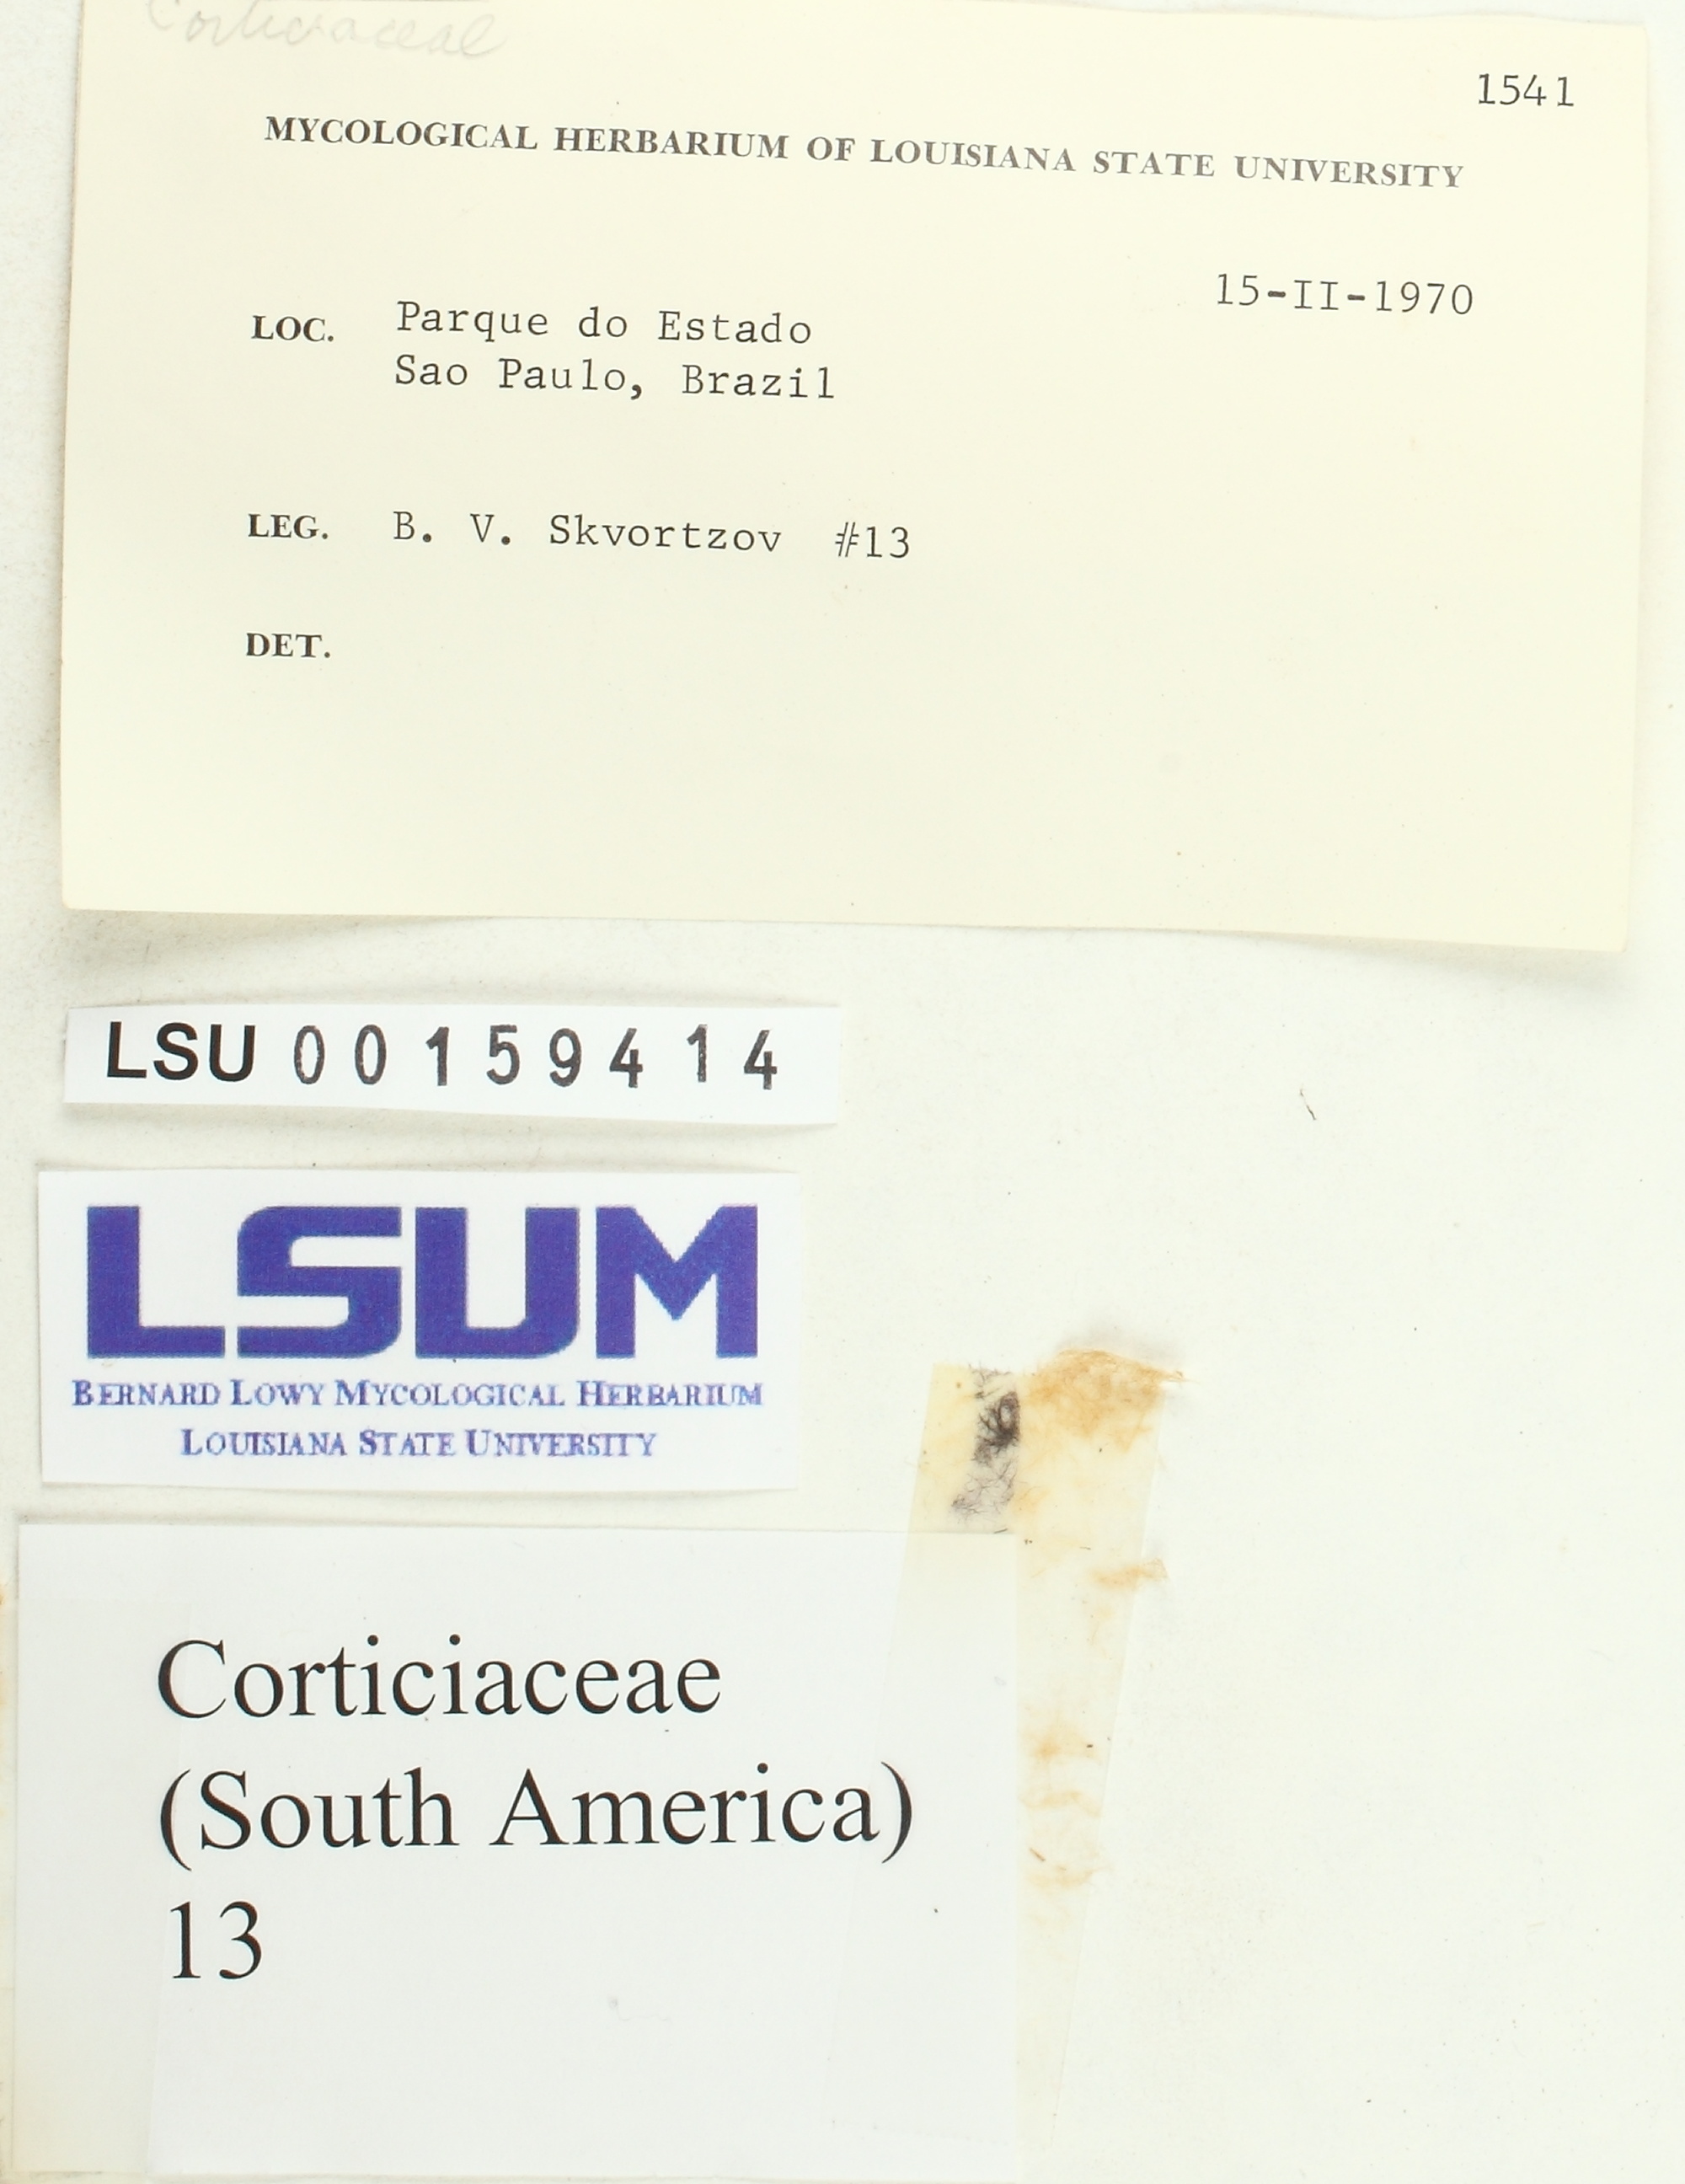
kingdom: Fungi
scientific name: Fungi
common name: Fungi
